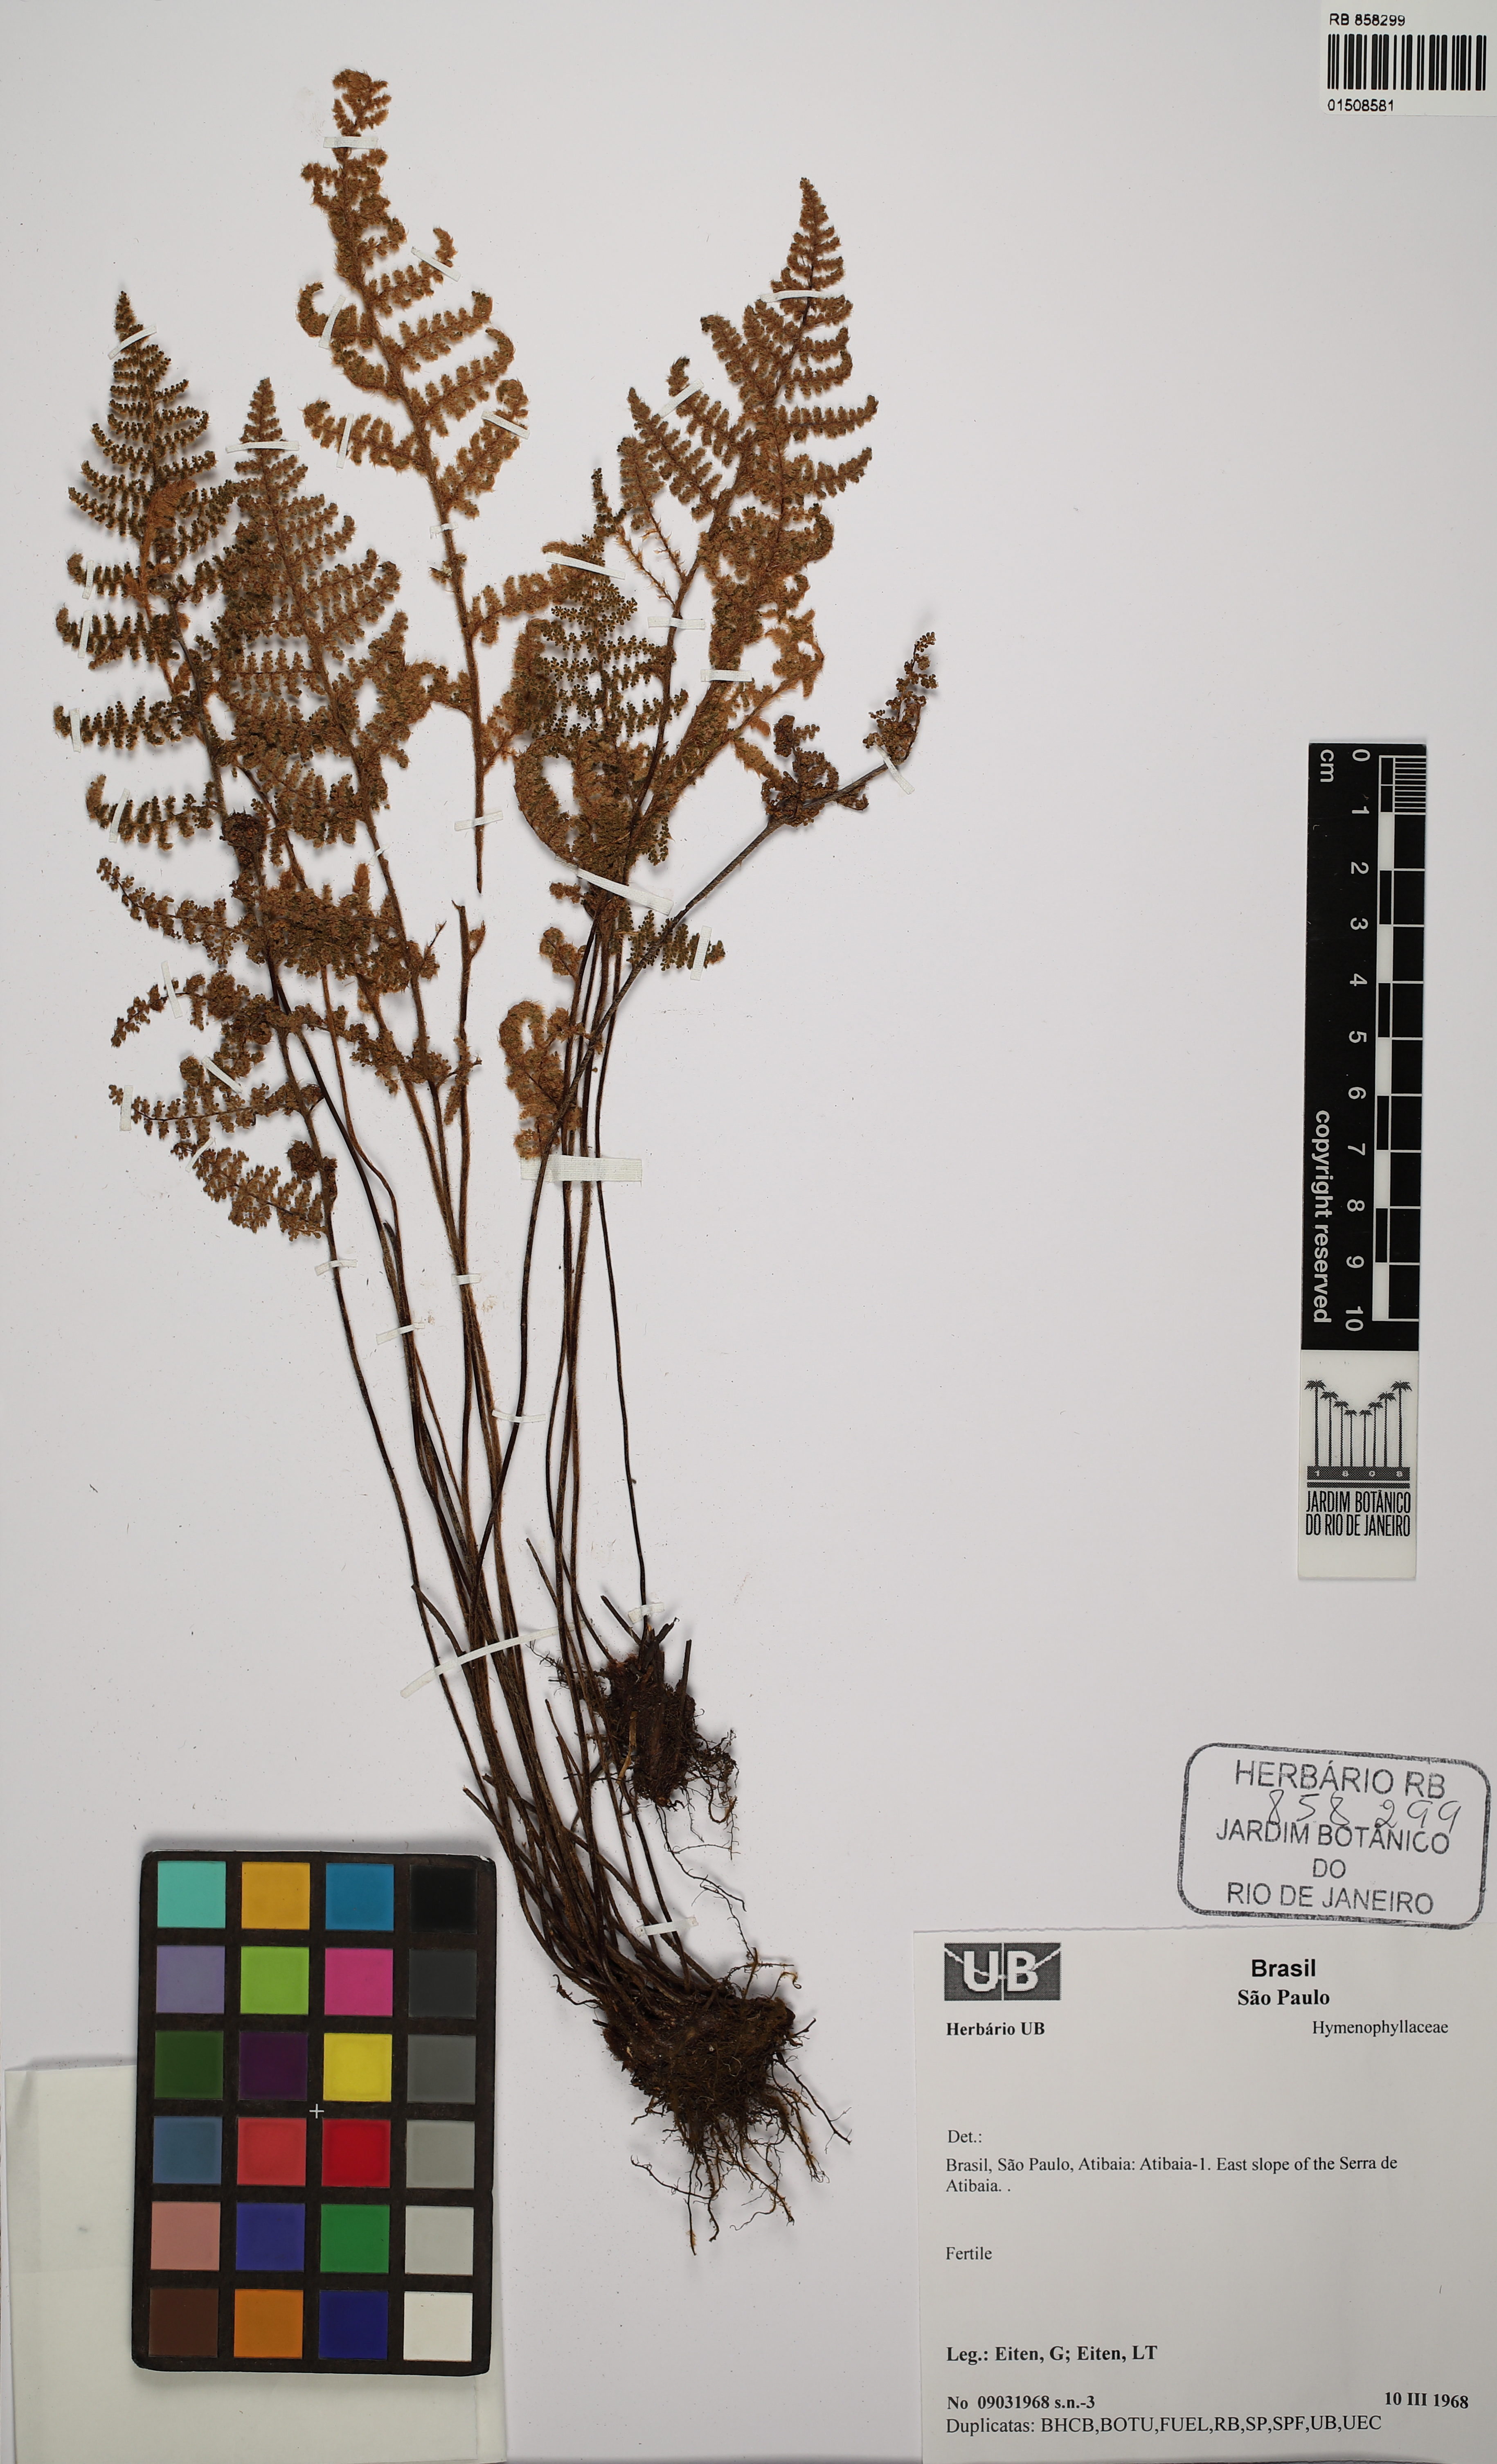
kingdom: Plantae
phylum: Tracheophyta
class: Polypodiopsida
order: Hymenophyllales
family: Hymenophyllaceae
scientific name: Hymenophyllaceae
